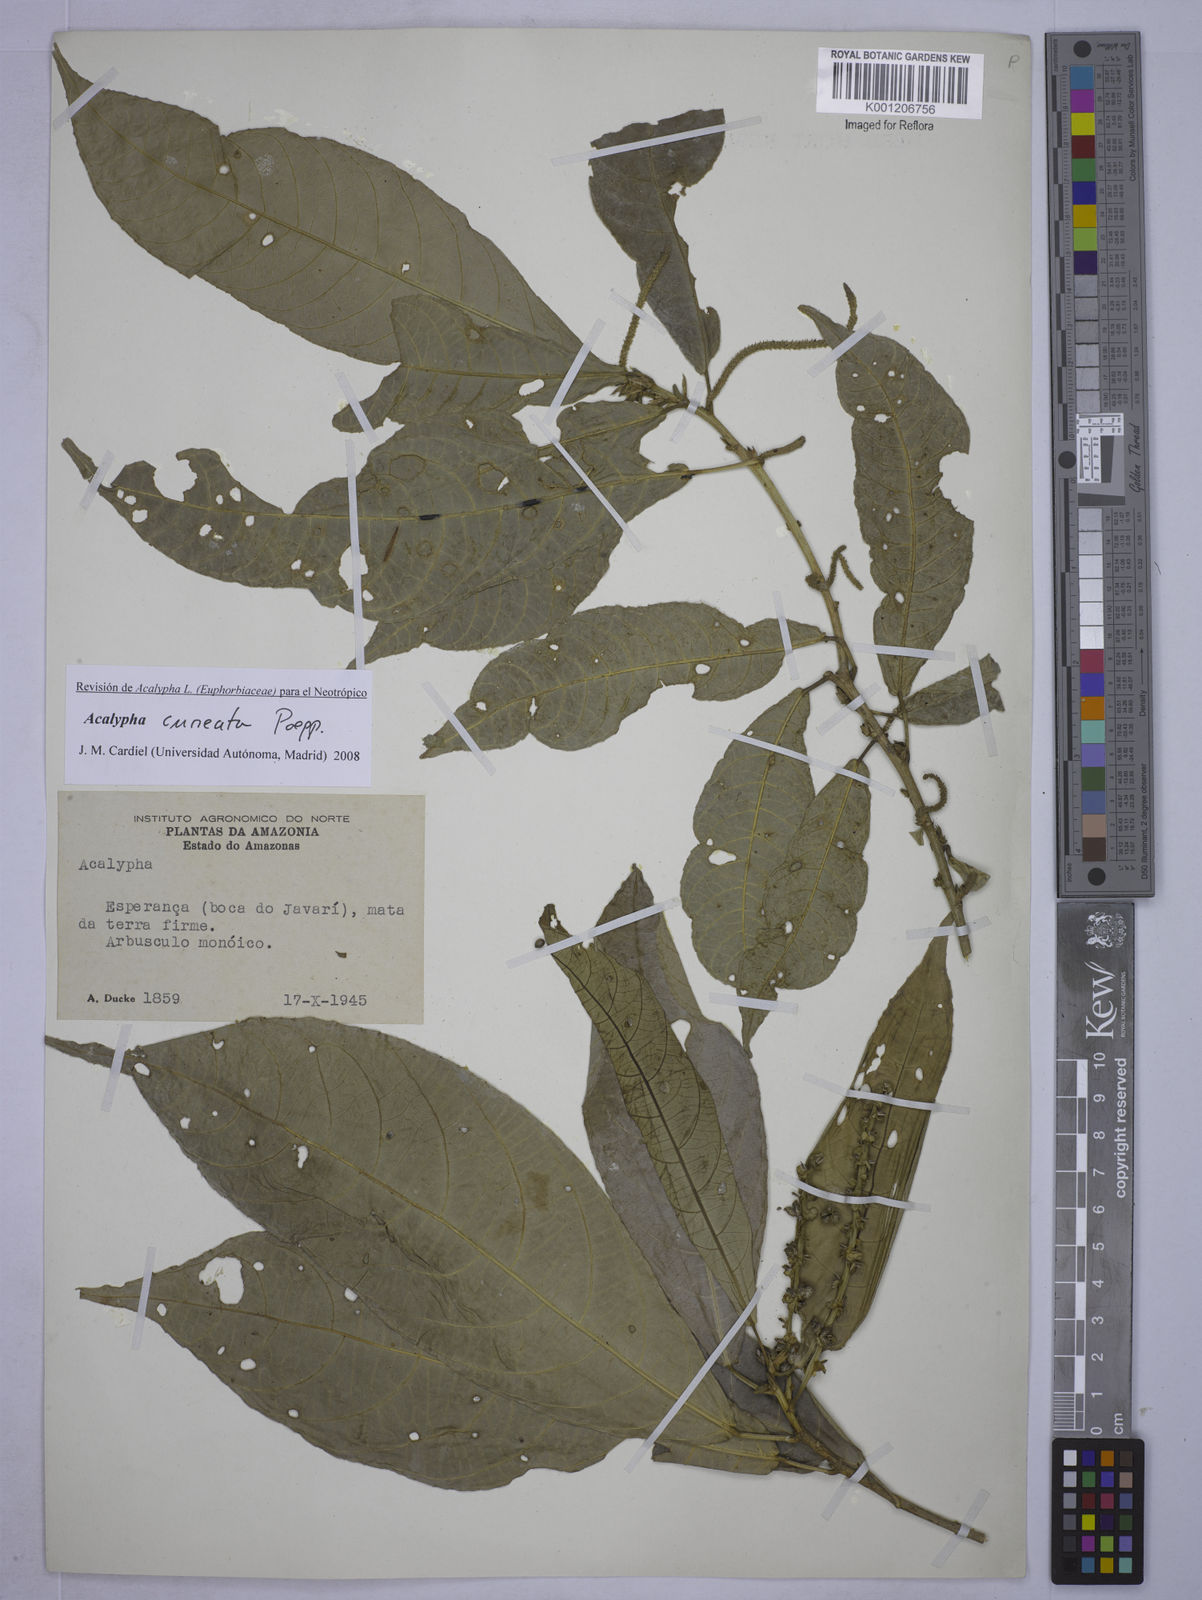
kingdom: Plantae
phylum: Tracheophyta
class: Magnoliopsida
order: Malpighiales
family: Euphorbiaceae
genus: Acalypha
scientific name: Acalypha cuneata
